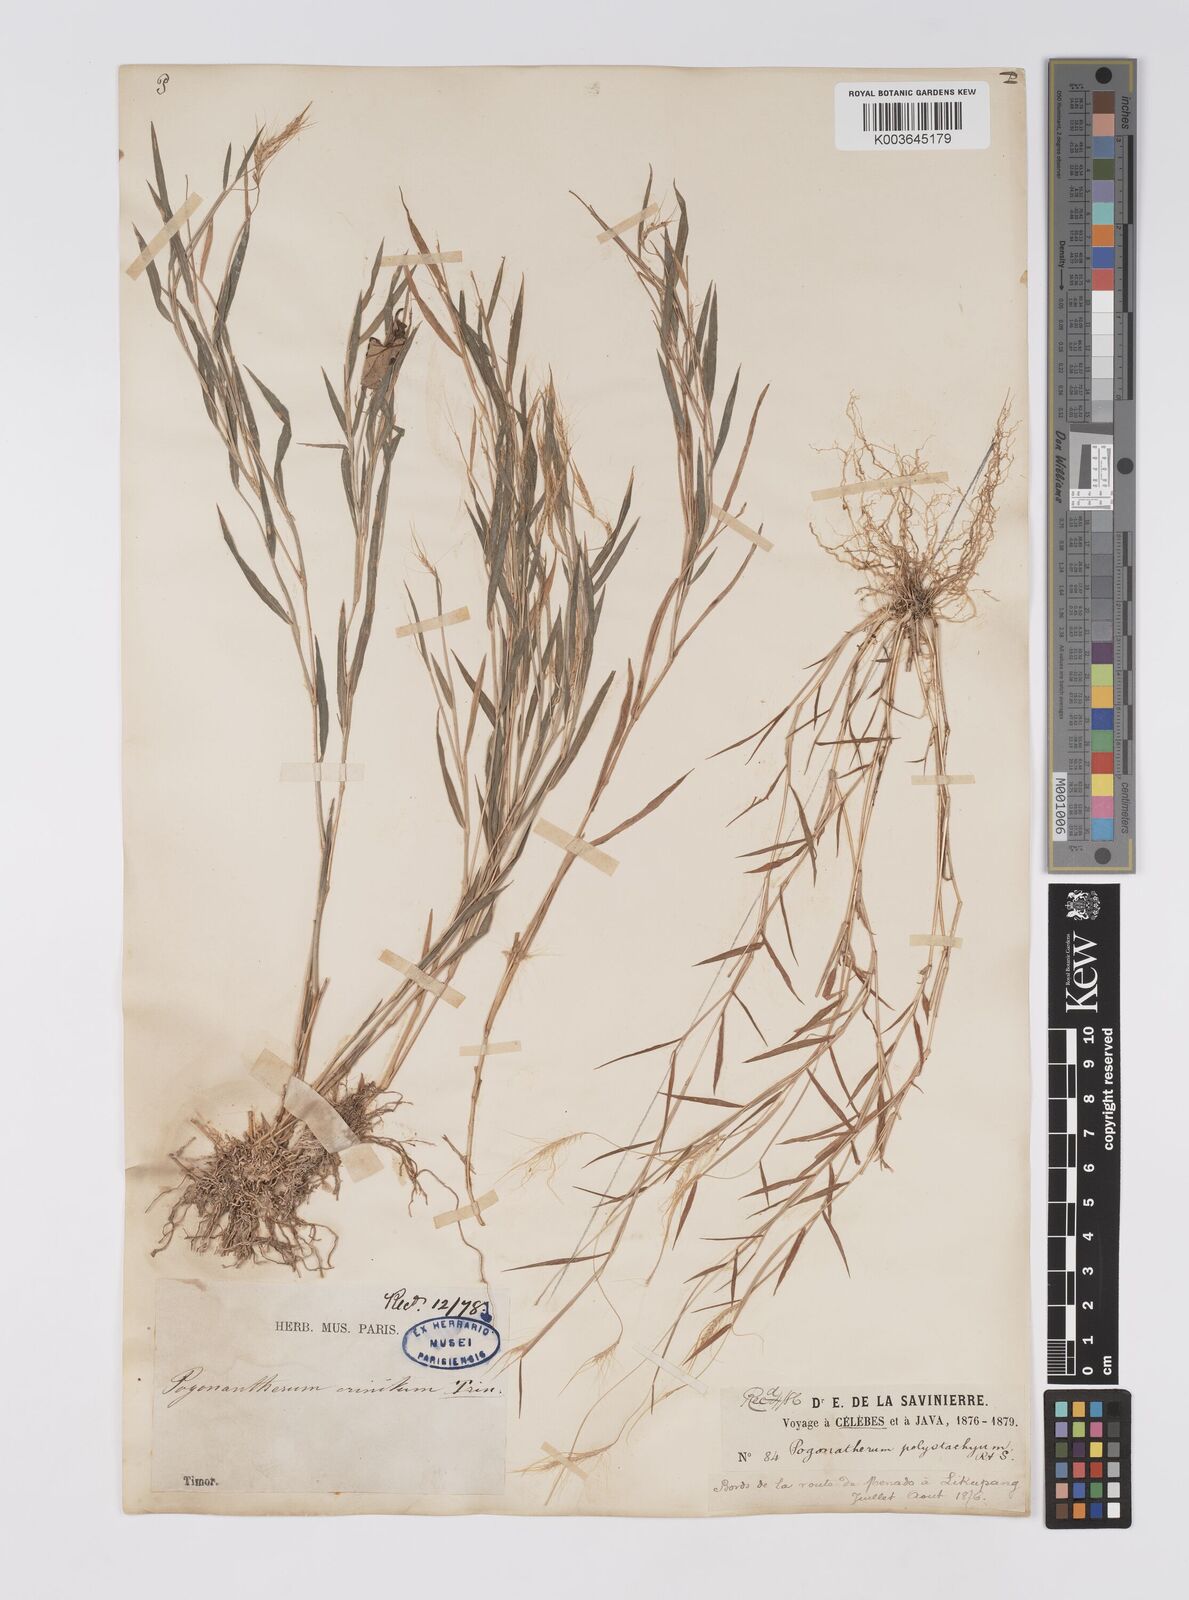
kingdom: Plantae
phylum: Tracheophyta
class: Liliopsida
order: Poales
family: Poaceae
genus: Pogonatherum
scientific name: Pogonatherum crinitum
